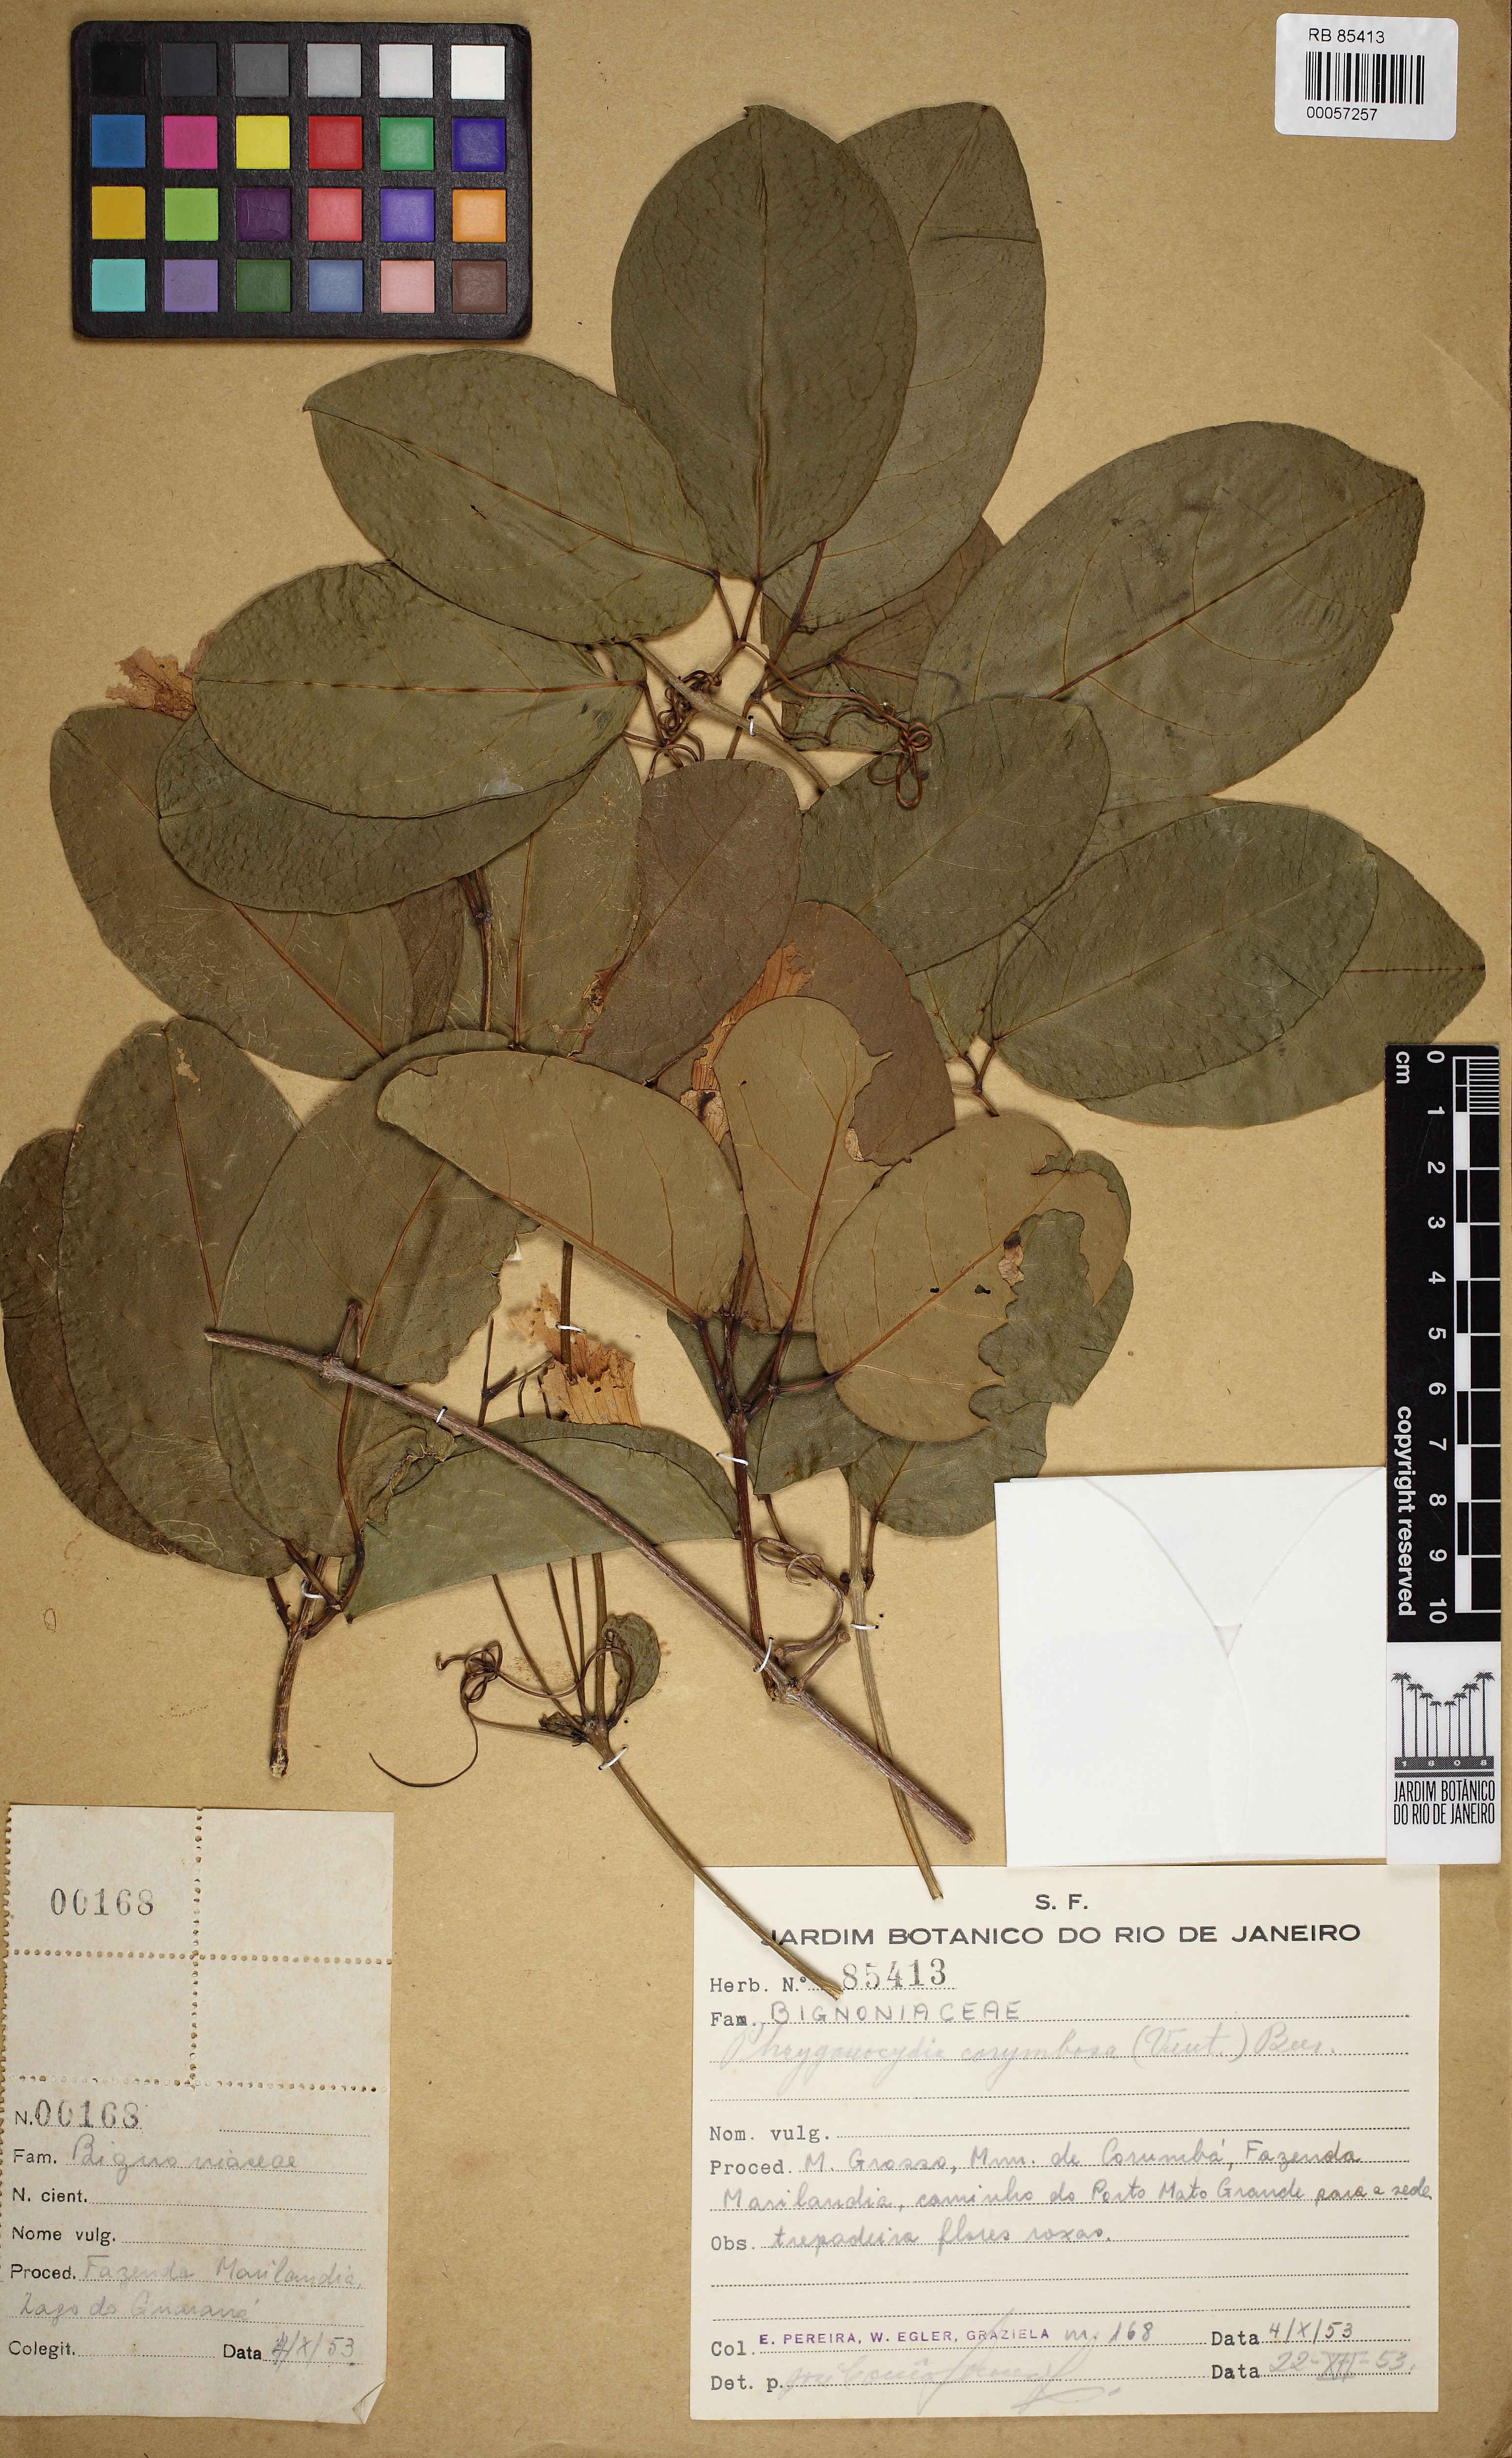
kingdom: Plantae
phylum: Tracheophyta
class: Magnoliopsida
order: Lamiales
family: Bignoniaceae
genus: Bignonia
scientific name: Bignonia corymbosa
